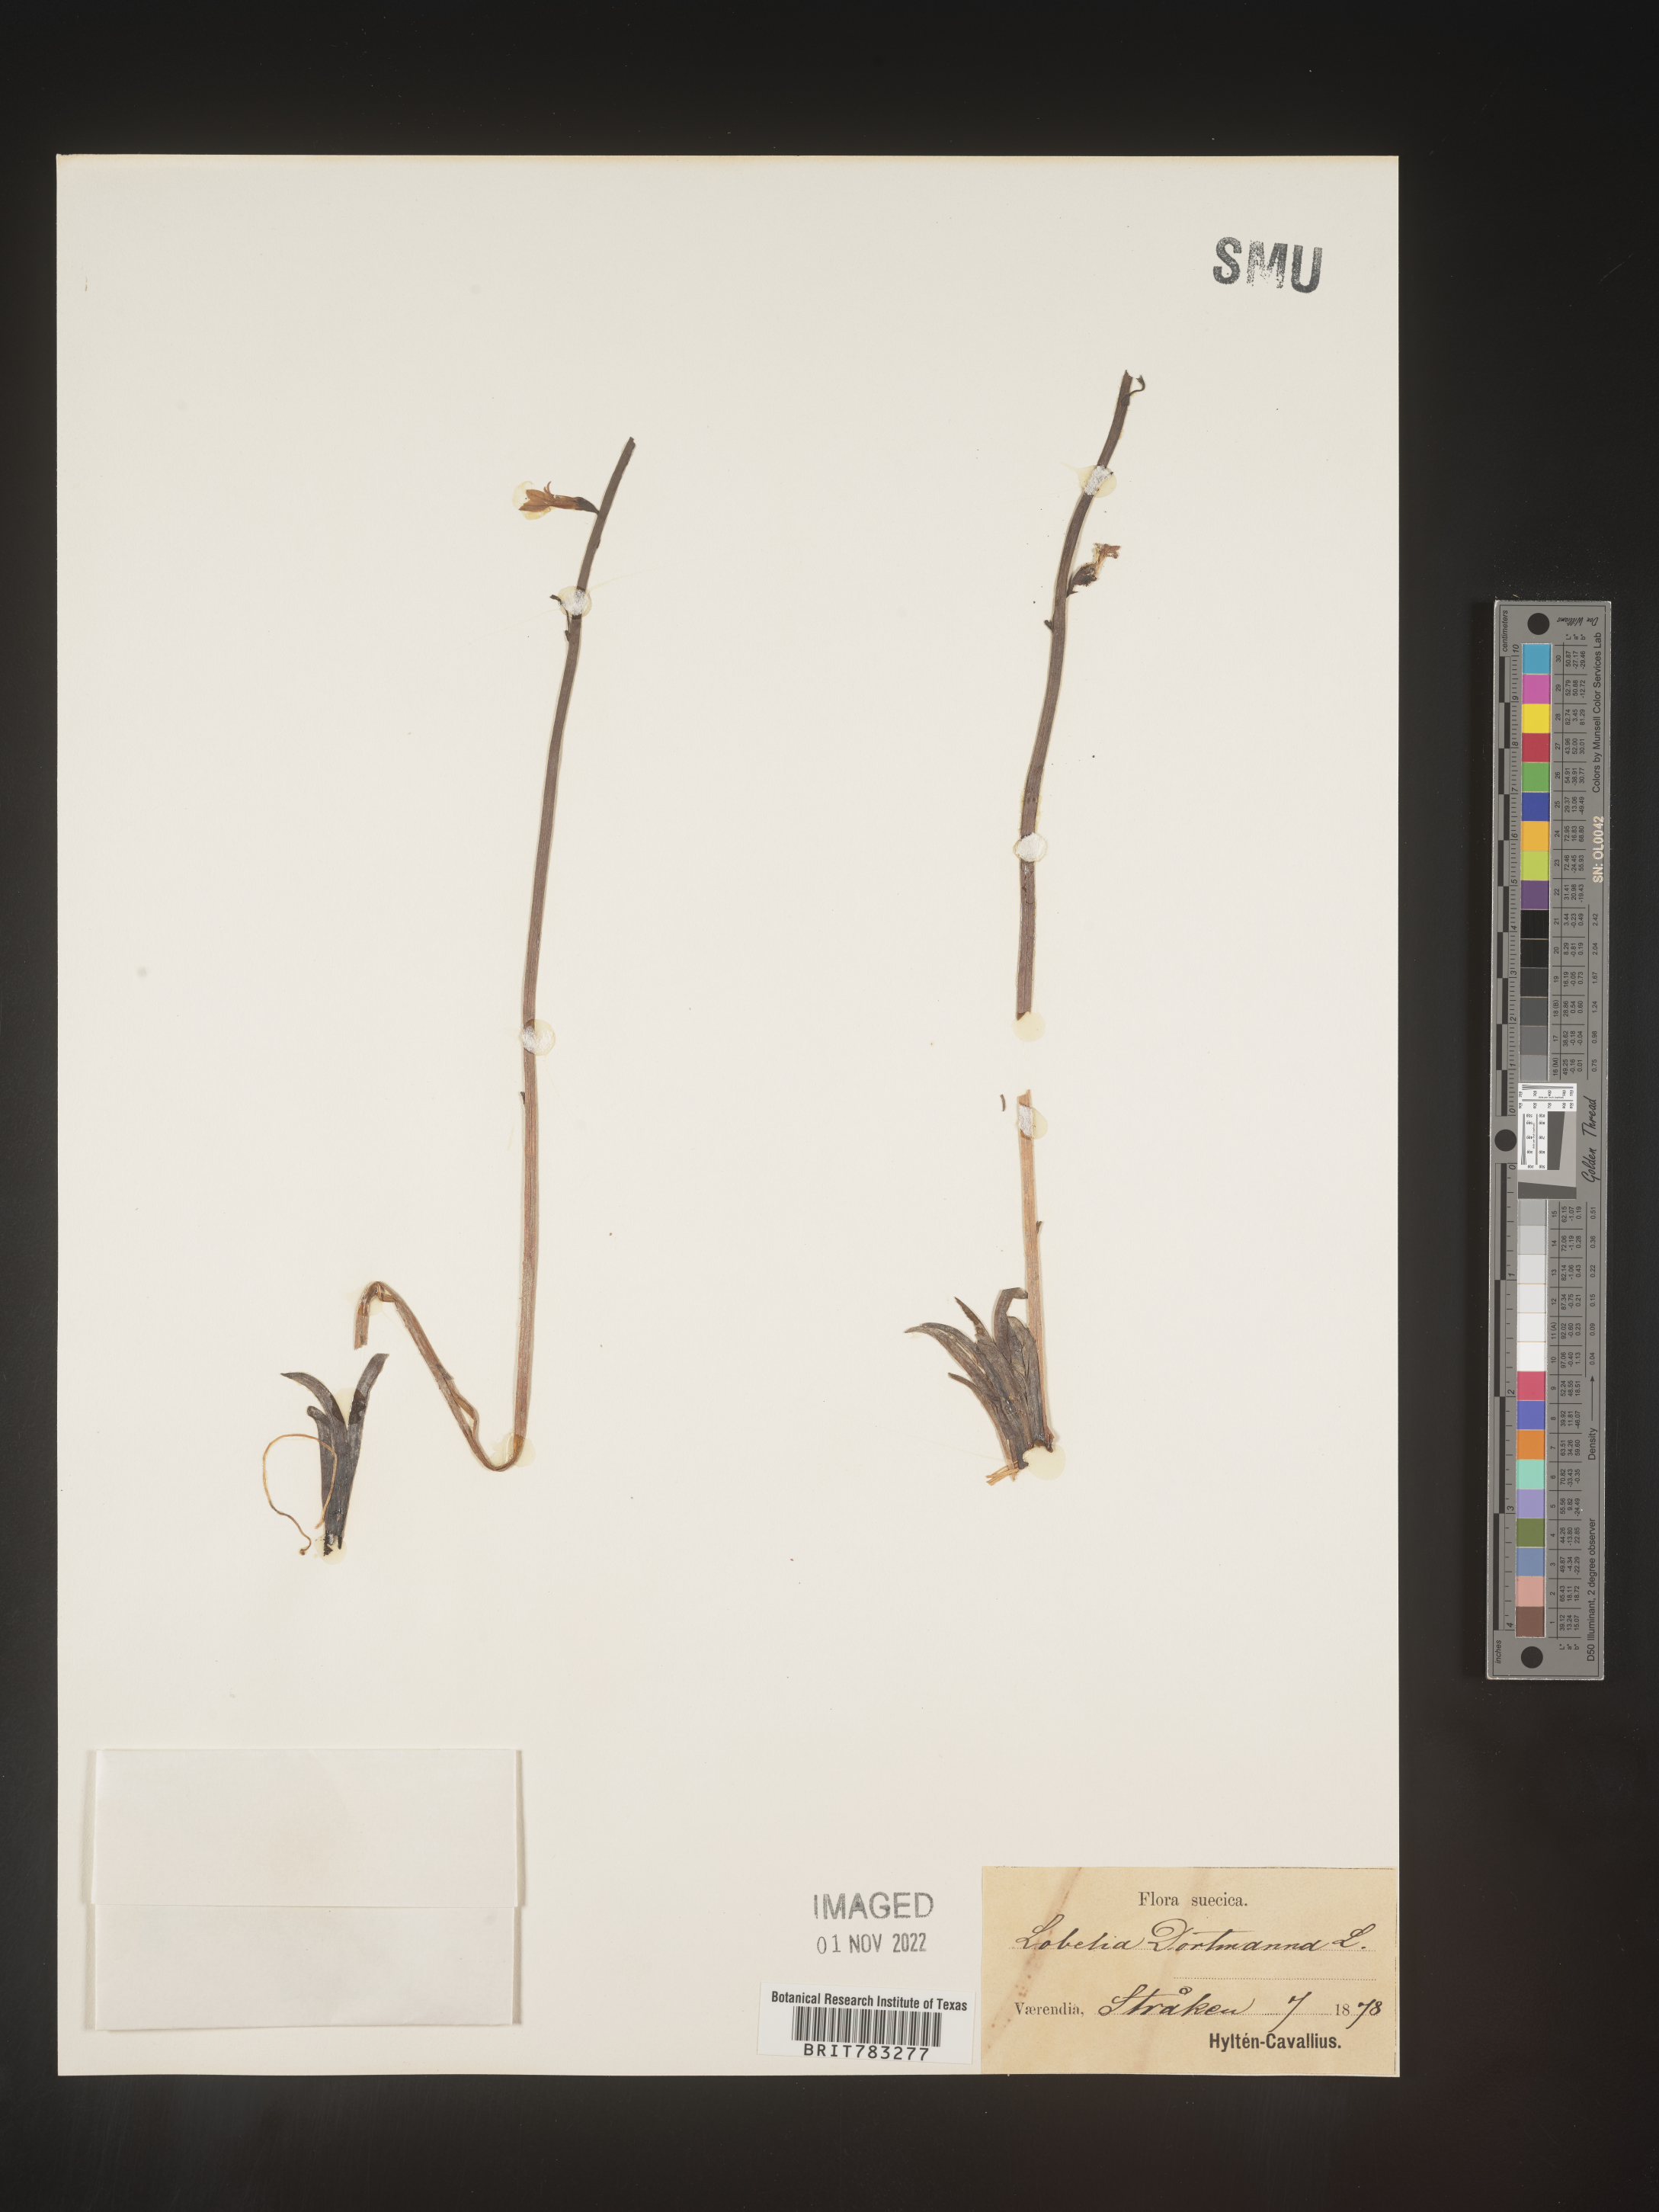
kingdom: Plantae
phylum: Tracheophyta
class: Magnoliopsida
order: Asterales
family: Campanulaceae
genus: Lobelia
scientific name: Lobelia
